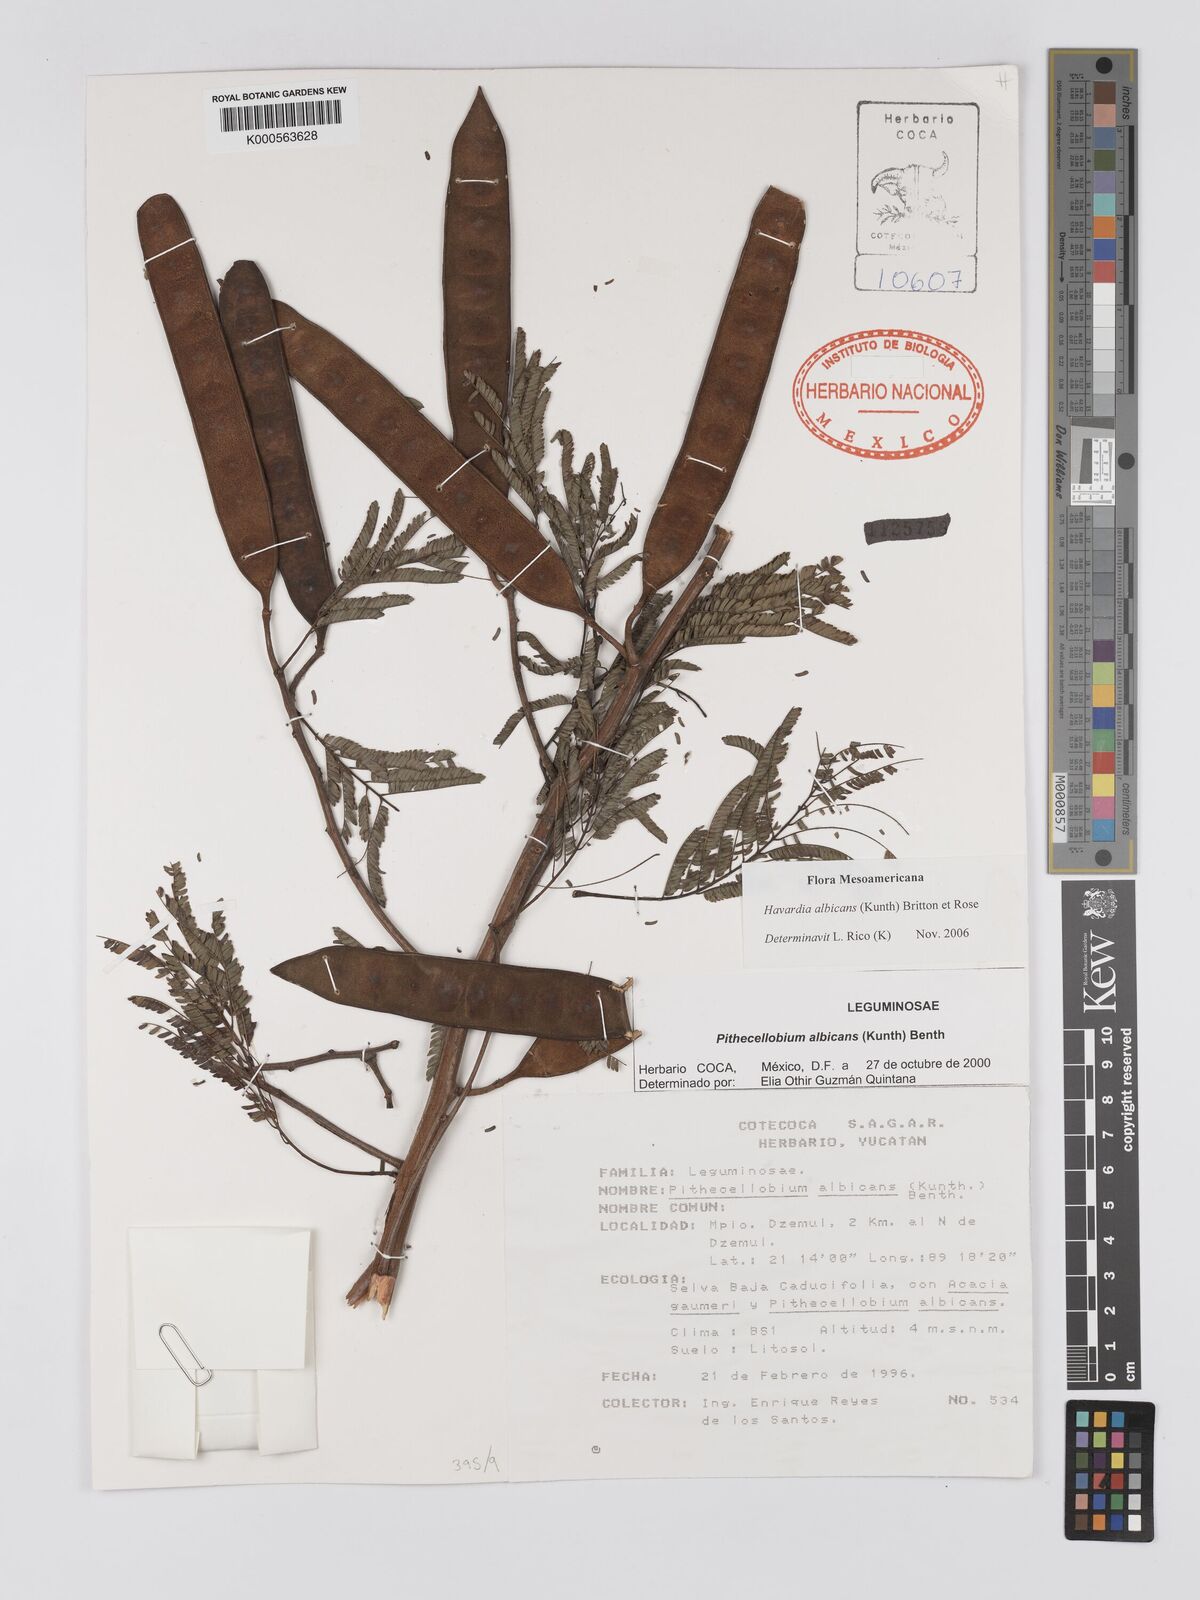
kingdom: Plantae
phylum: Tracheophyta
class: Magnoliopsida
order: Fabales
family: Fabaceae
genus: Havardia
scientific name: Havardia pallens
